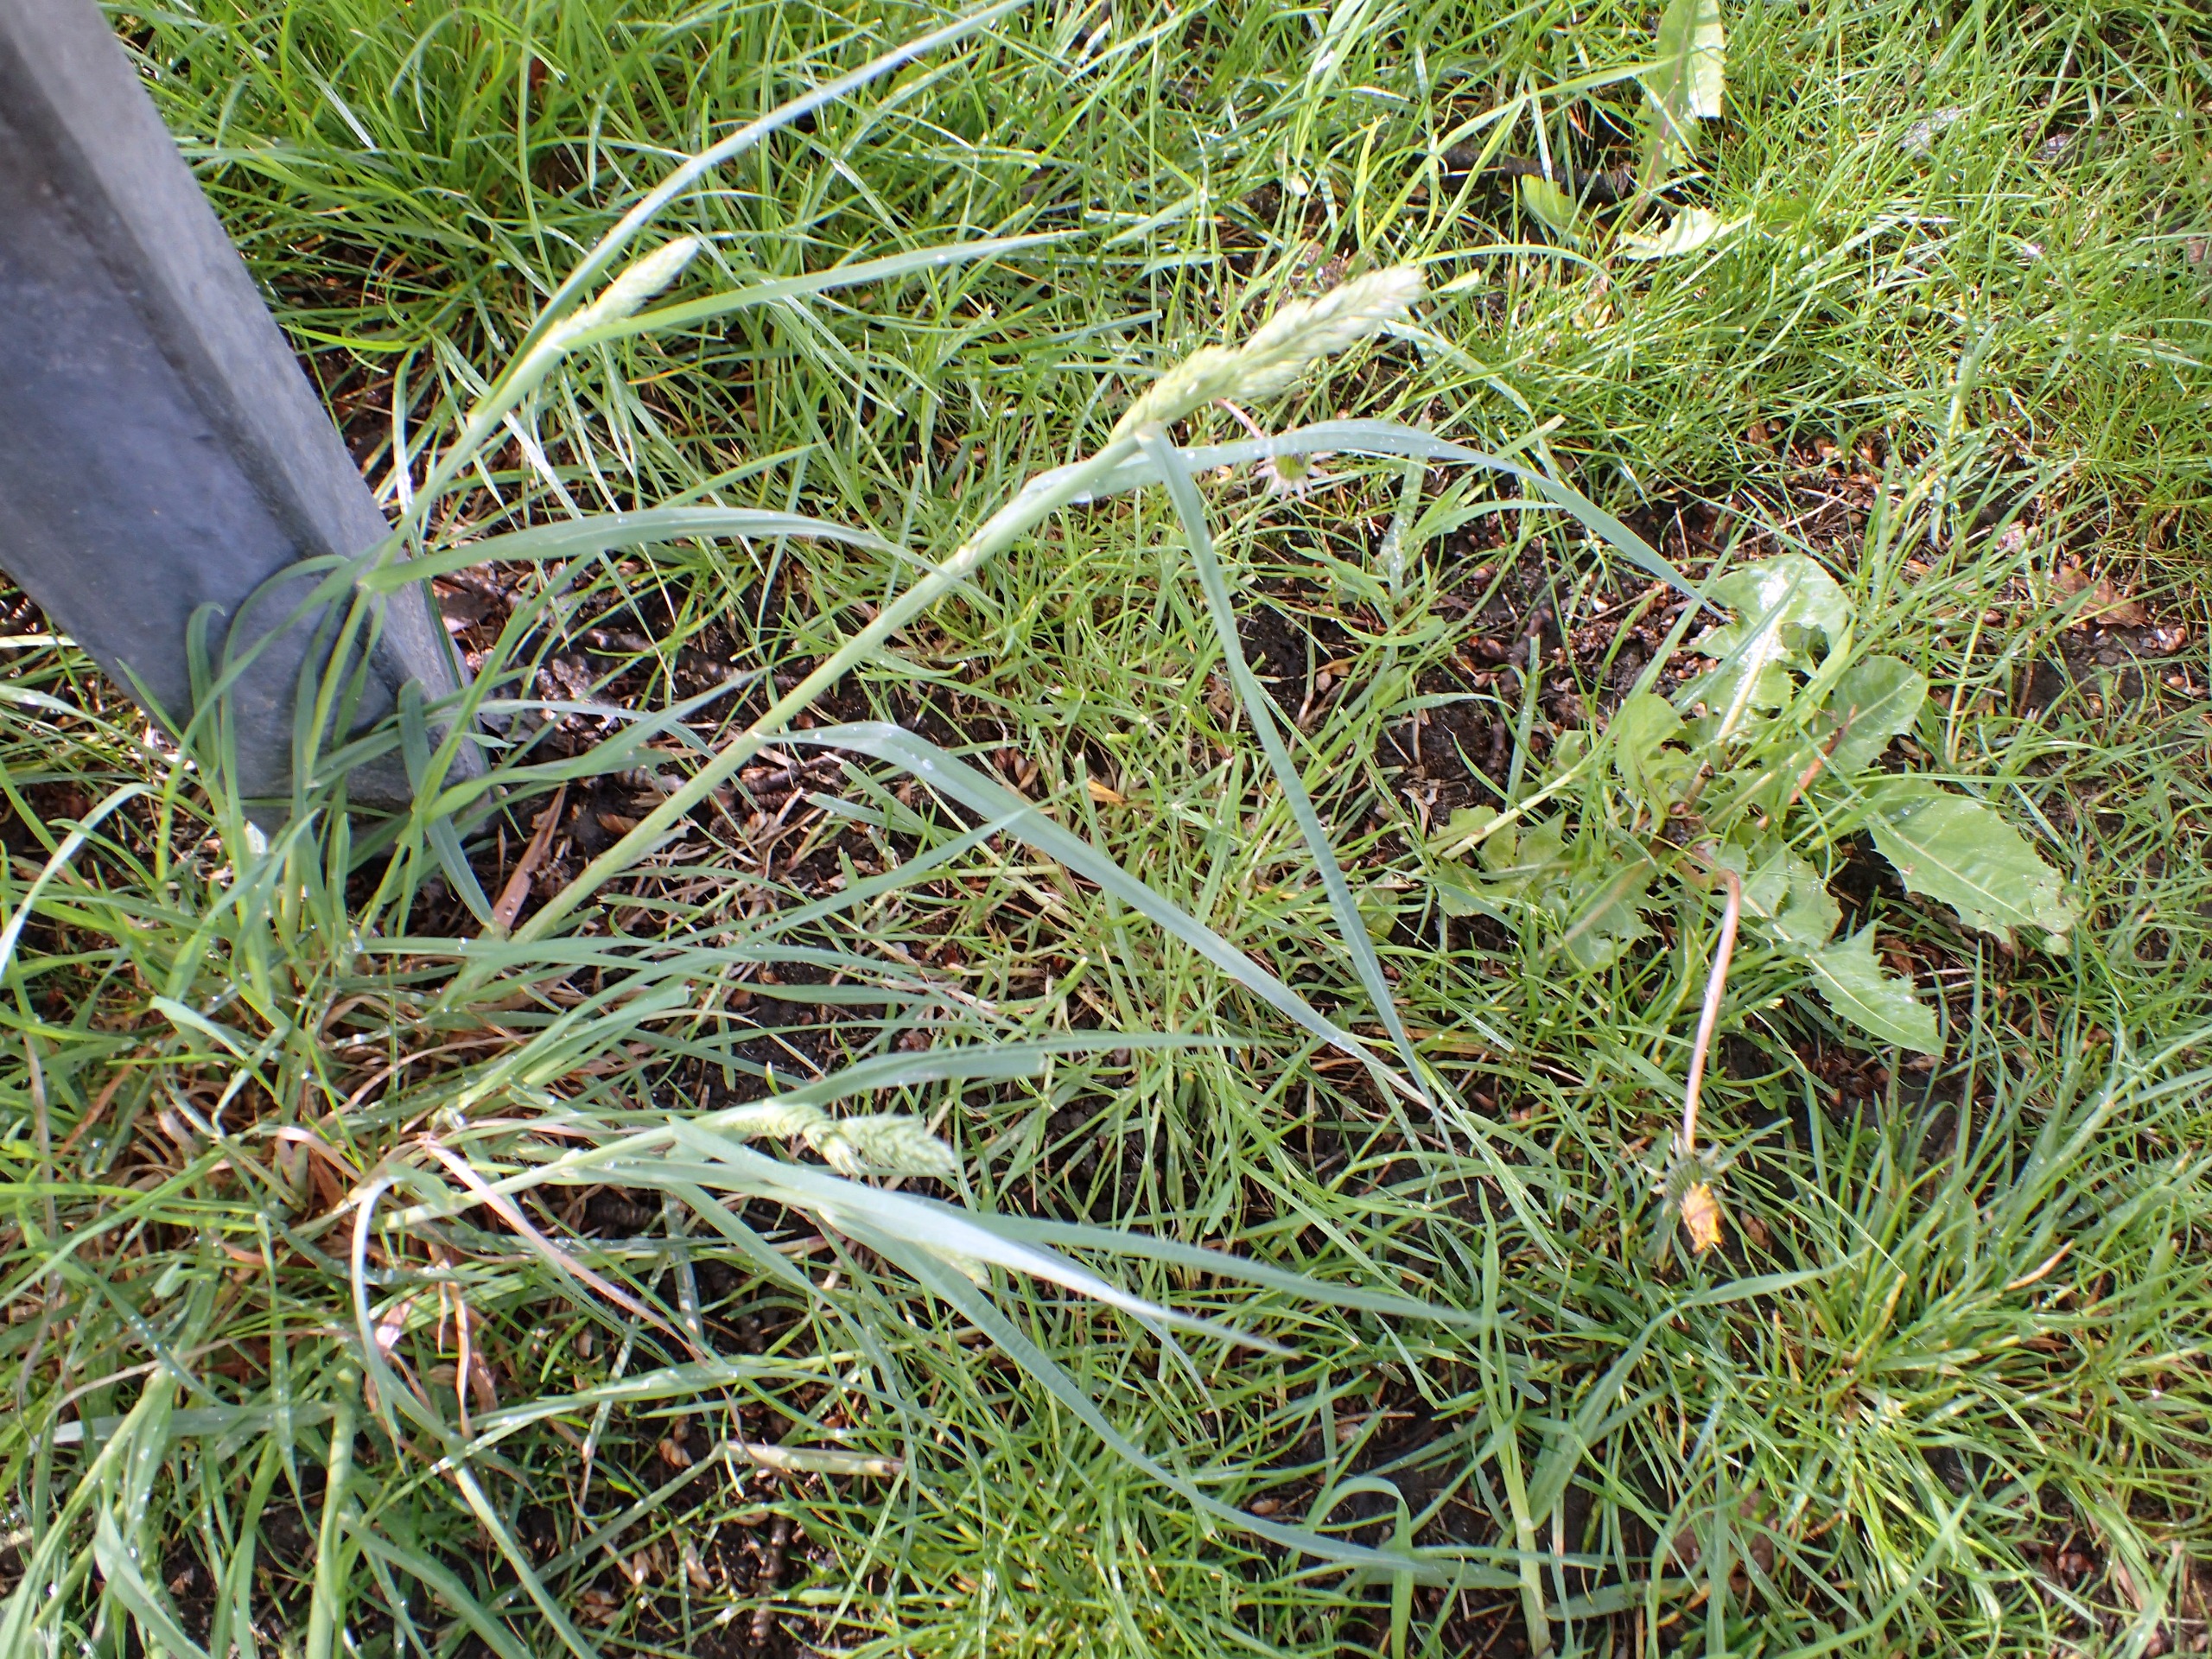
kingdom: Plantae
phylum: Tracheophyta
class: Liliopsida
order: Poales
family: Poaceae
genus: Dactylis
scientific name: Dactylis glomerata
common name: Almindelig hundegræs
